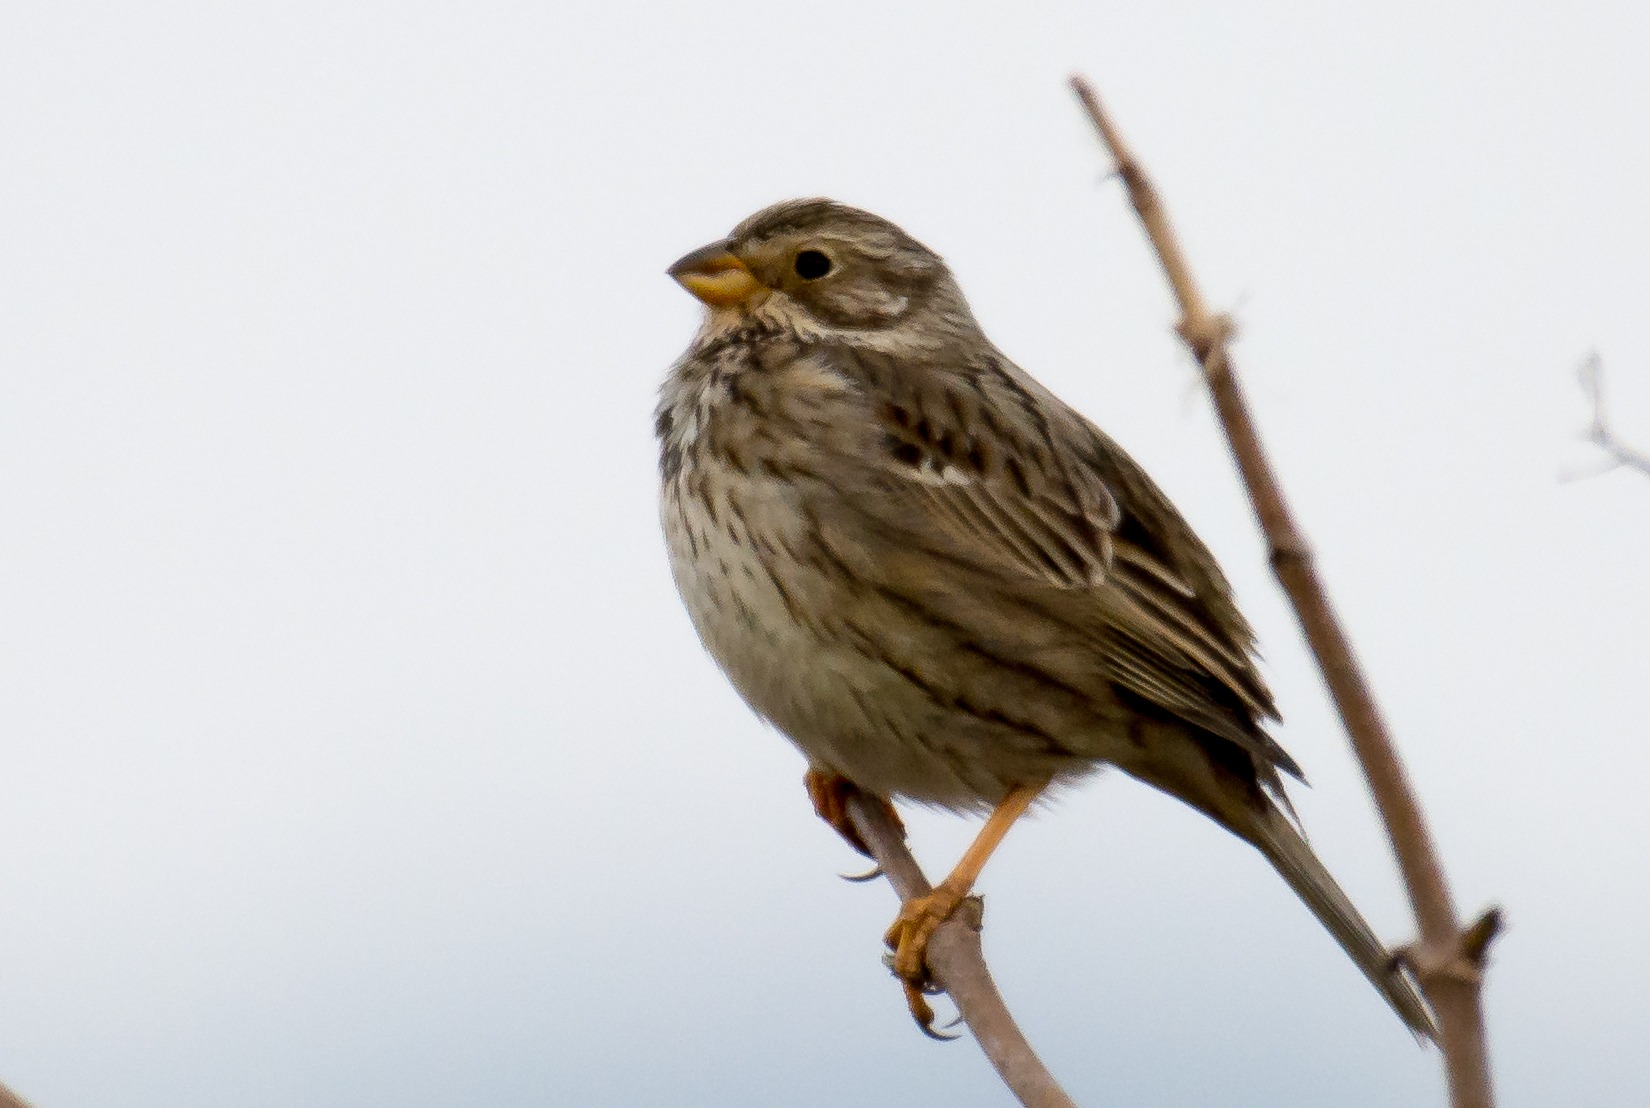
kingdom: Animalia
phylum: Chordata
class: Aves
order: Passeriformes
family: Emberizidae
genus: Emberiza
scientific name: Emberiza calandra
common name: Bomlærke
